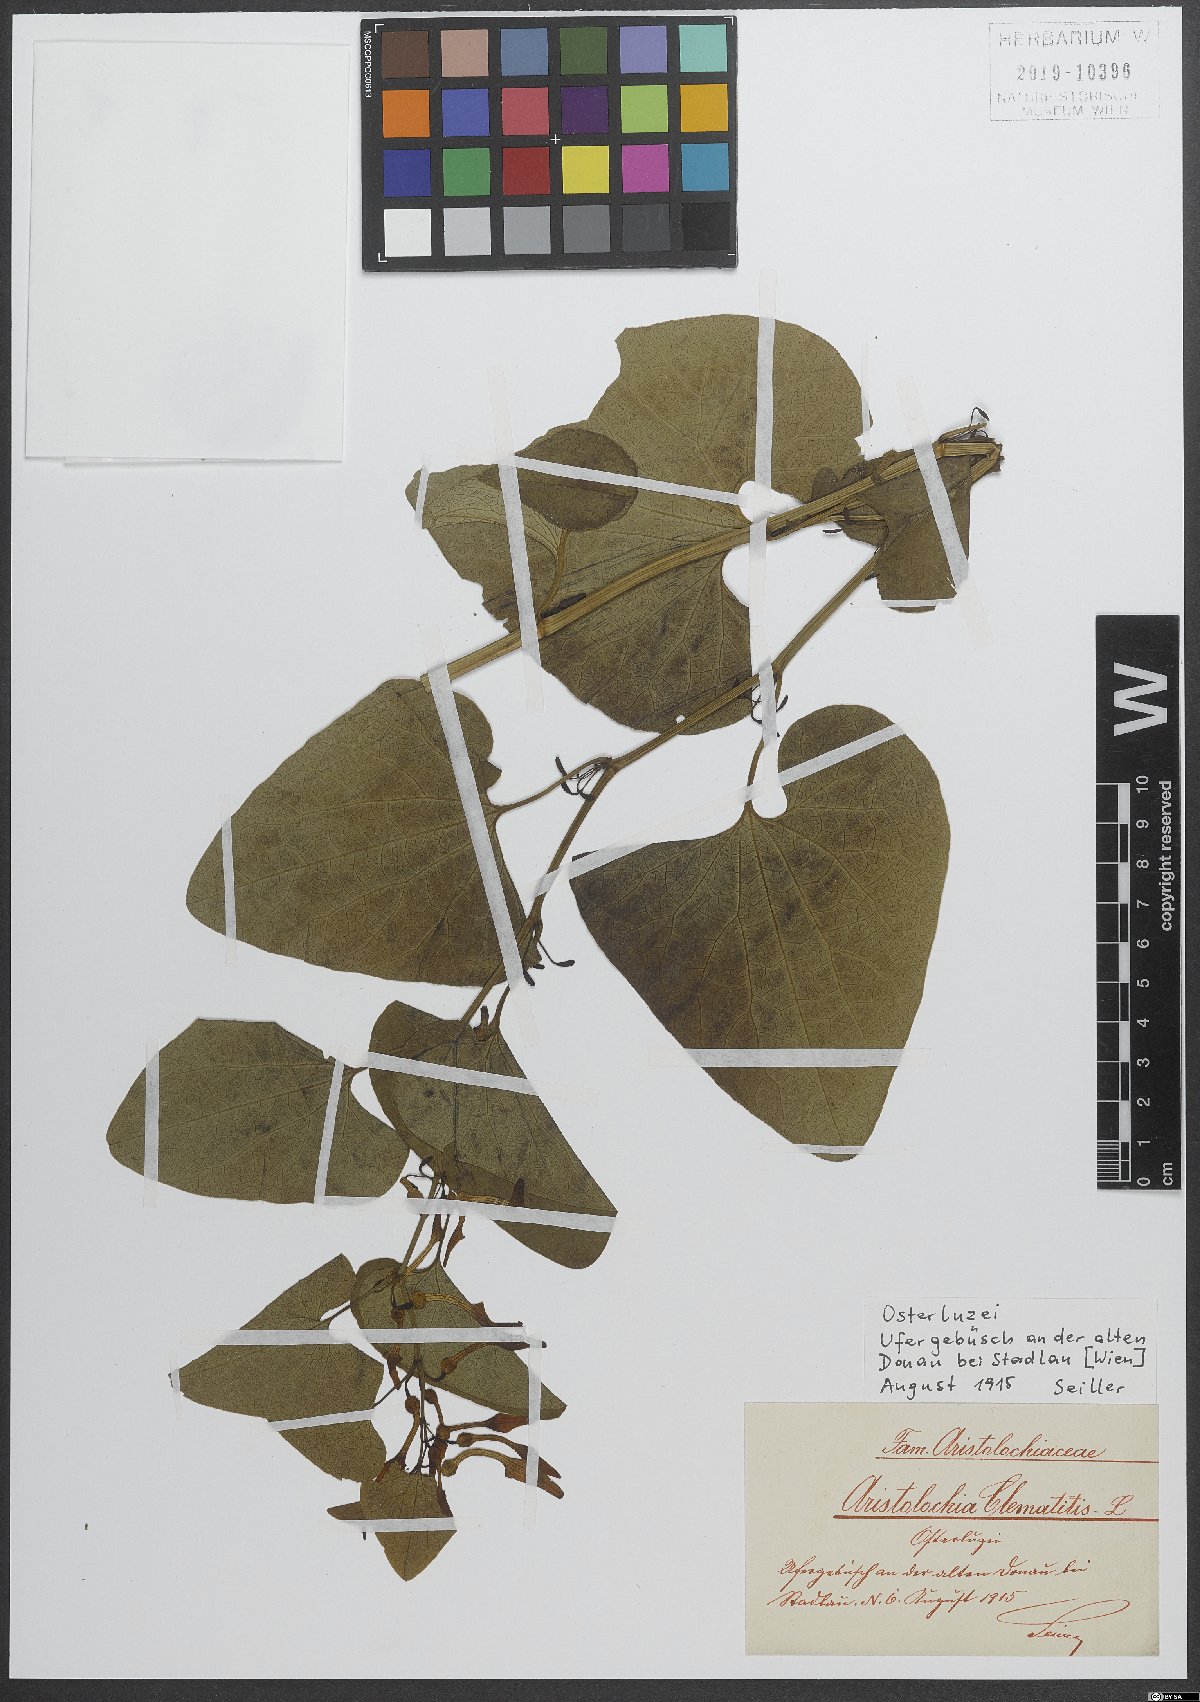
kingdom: Plantae
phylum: Tracheophyta
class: Magnoliopsida
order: Piperales
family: Aristolochiaceae
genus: Aristolochia
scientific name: Aristolochia clematitis
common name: Birthwort
